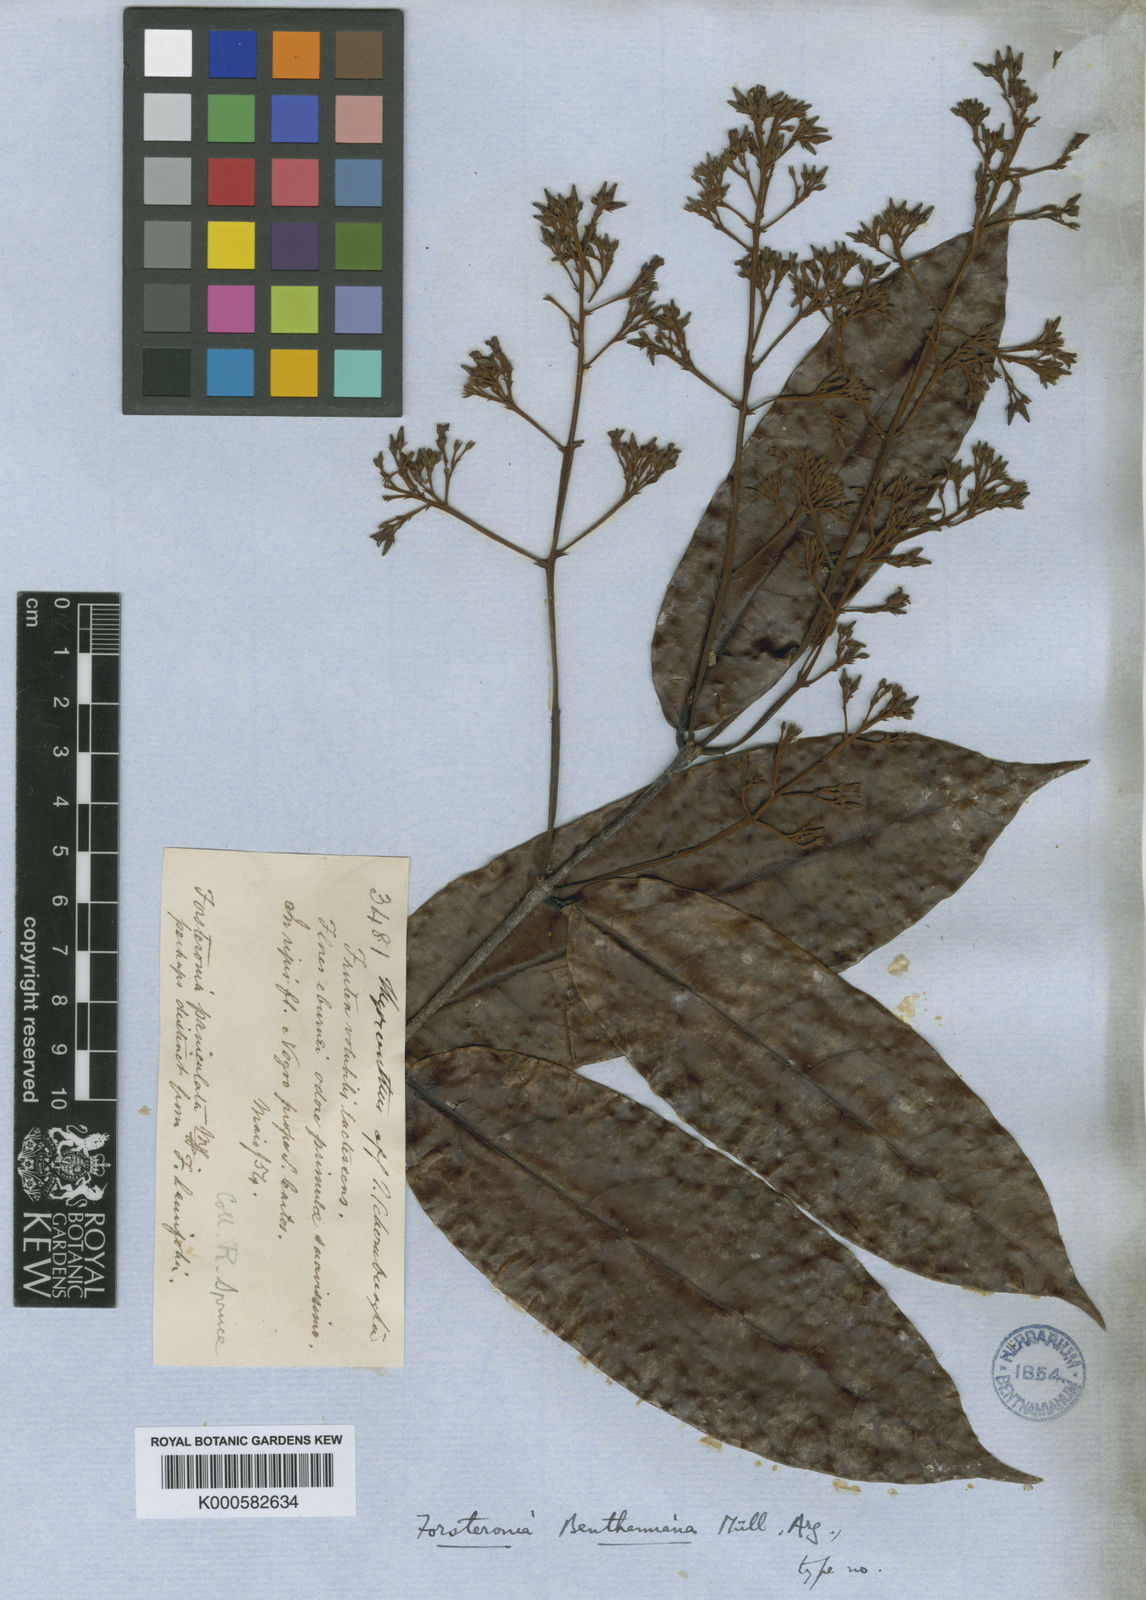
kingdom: Plantae
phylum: Tracheophyta
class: Magnoliopsida
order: Gentianales
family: Apocynaceae
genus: Forsteronia
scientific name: Forsteronia
